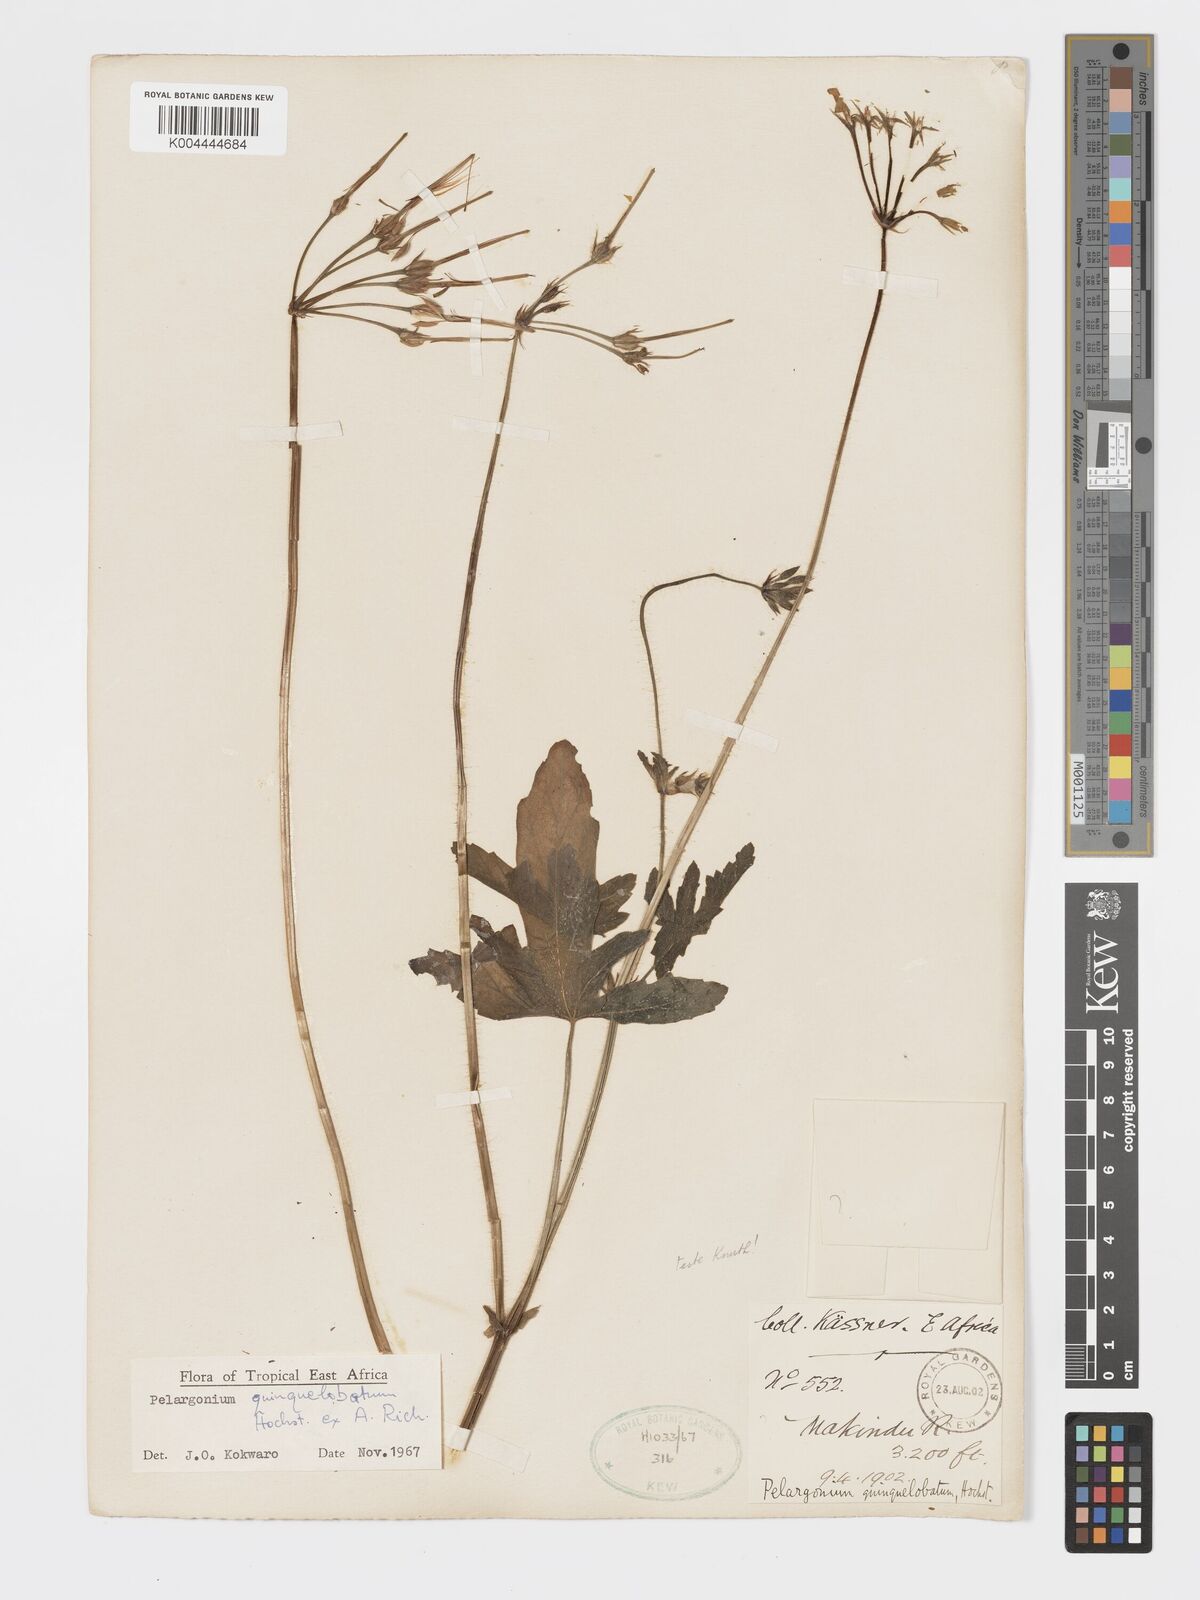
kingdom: Plantae
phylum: Tracheophyta
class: Magnoliopsida
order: Geraniales
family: Geraniaceae
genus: Pelargonium
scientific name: Pelargonium quinquelobatum
